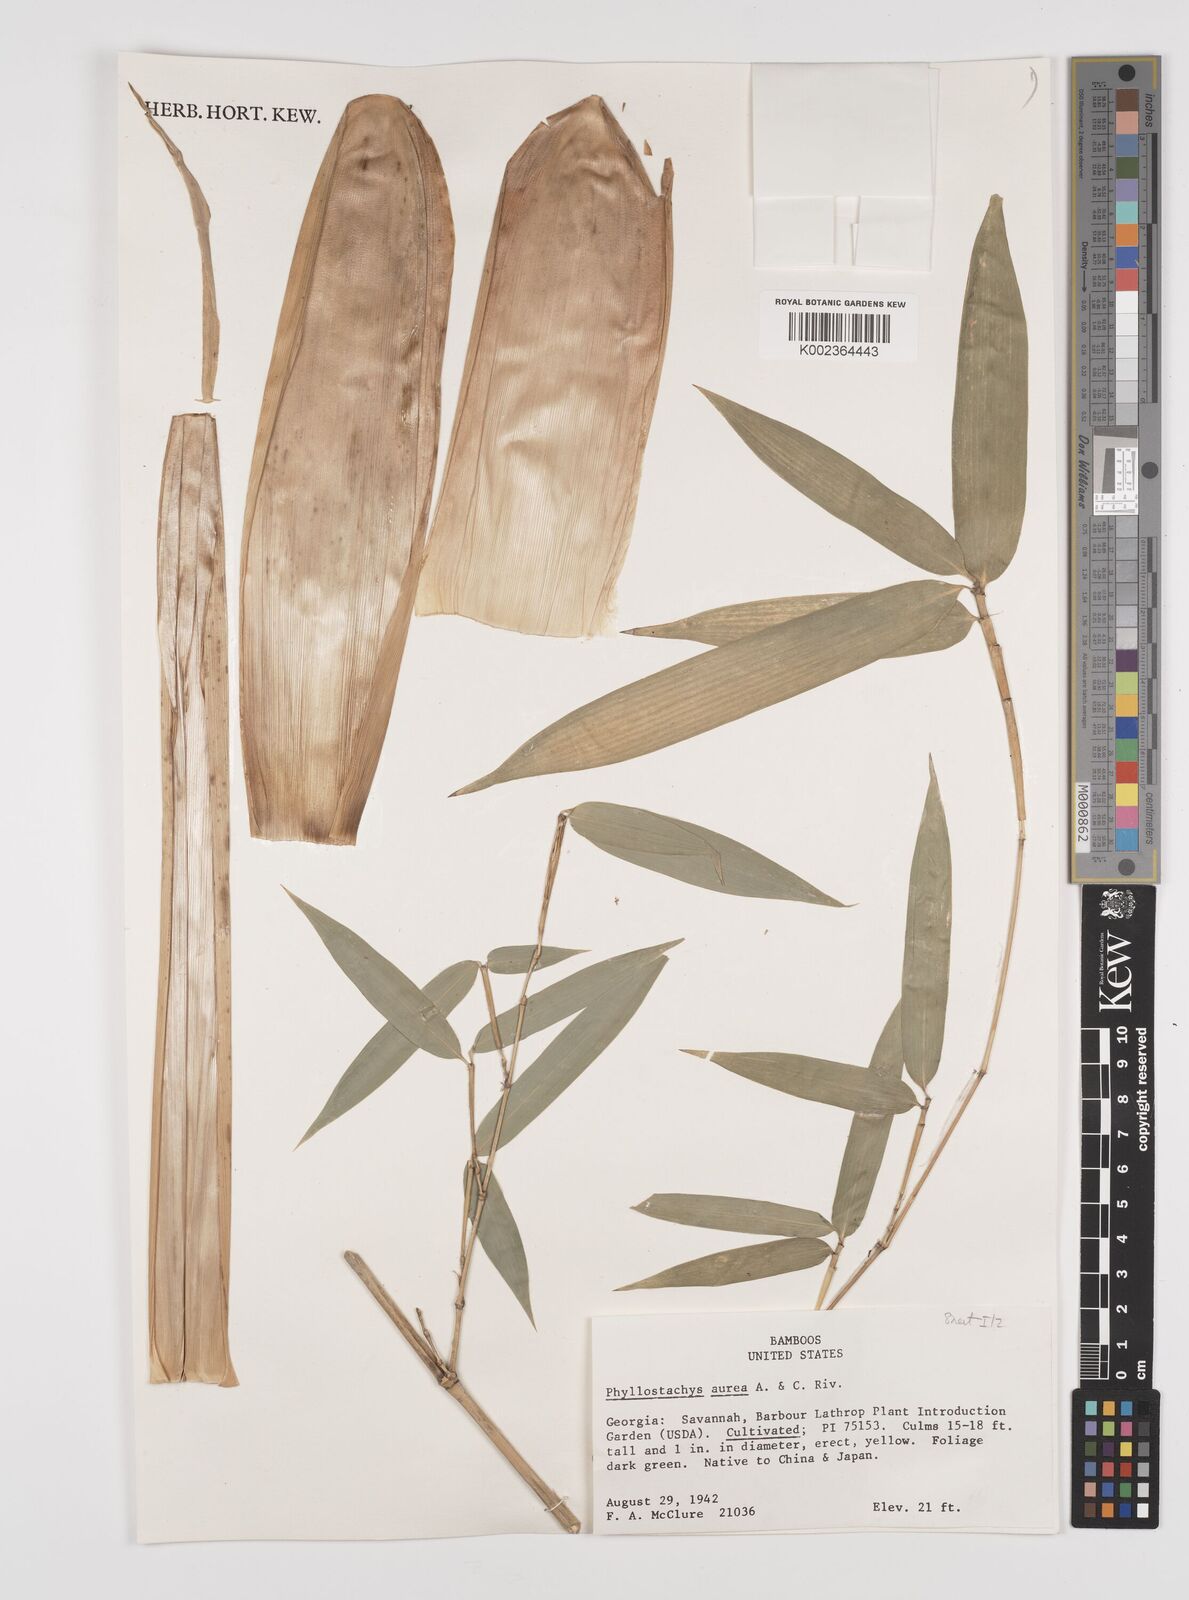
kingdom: Plantae
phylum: Tracheophyta
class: Liliopsida
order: Poales
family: Poaceae
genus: Phyllostachys
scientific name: Phyllostachys aurea
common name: Golden bamboo
